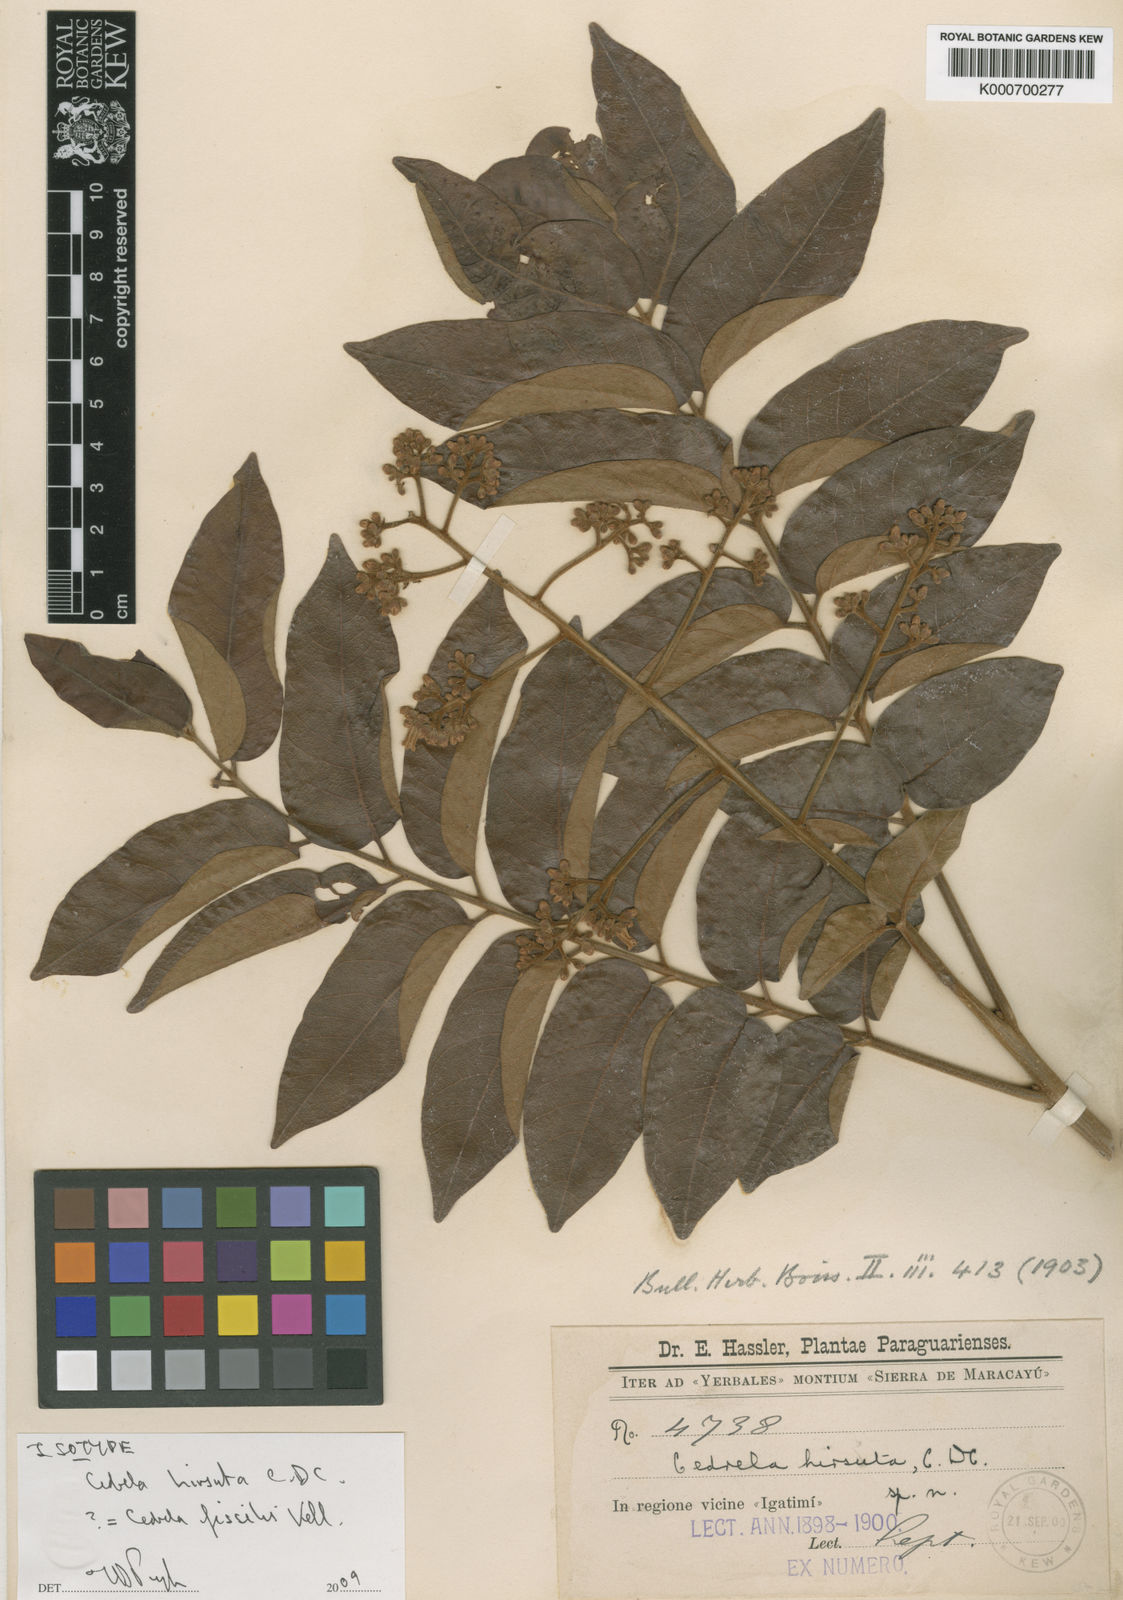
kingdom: Plantae
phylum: Tracheophyta
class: Magnoliopsida
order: Sapindales
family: Meliaceae
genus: Cedrela
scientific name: Cedrela fissilis
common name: Argentine cedar
